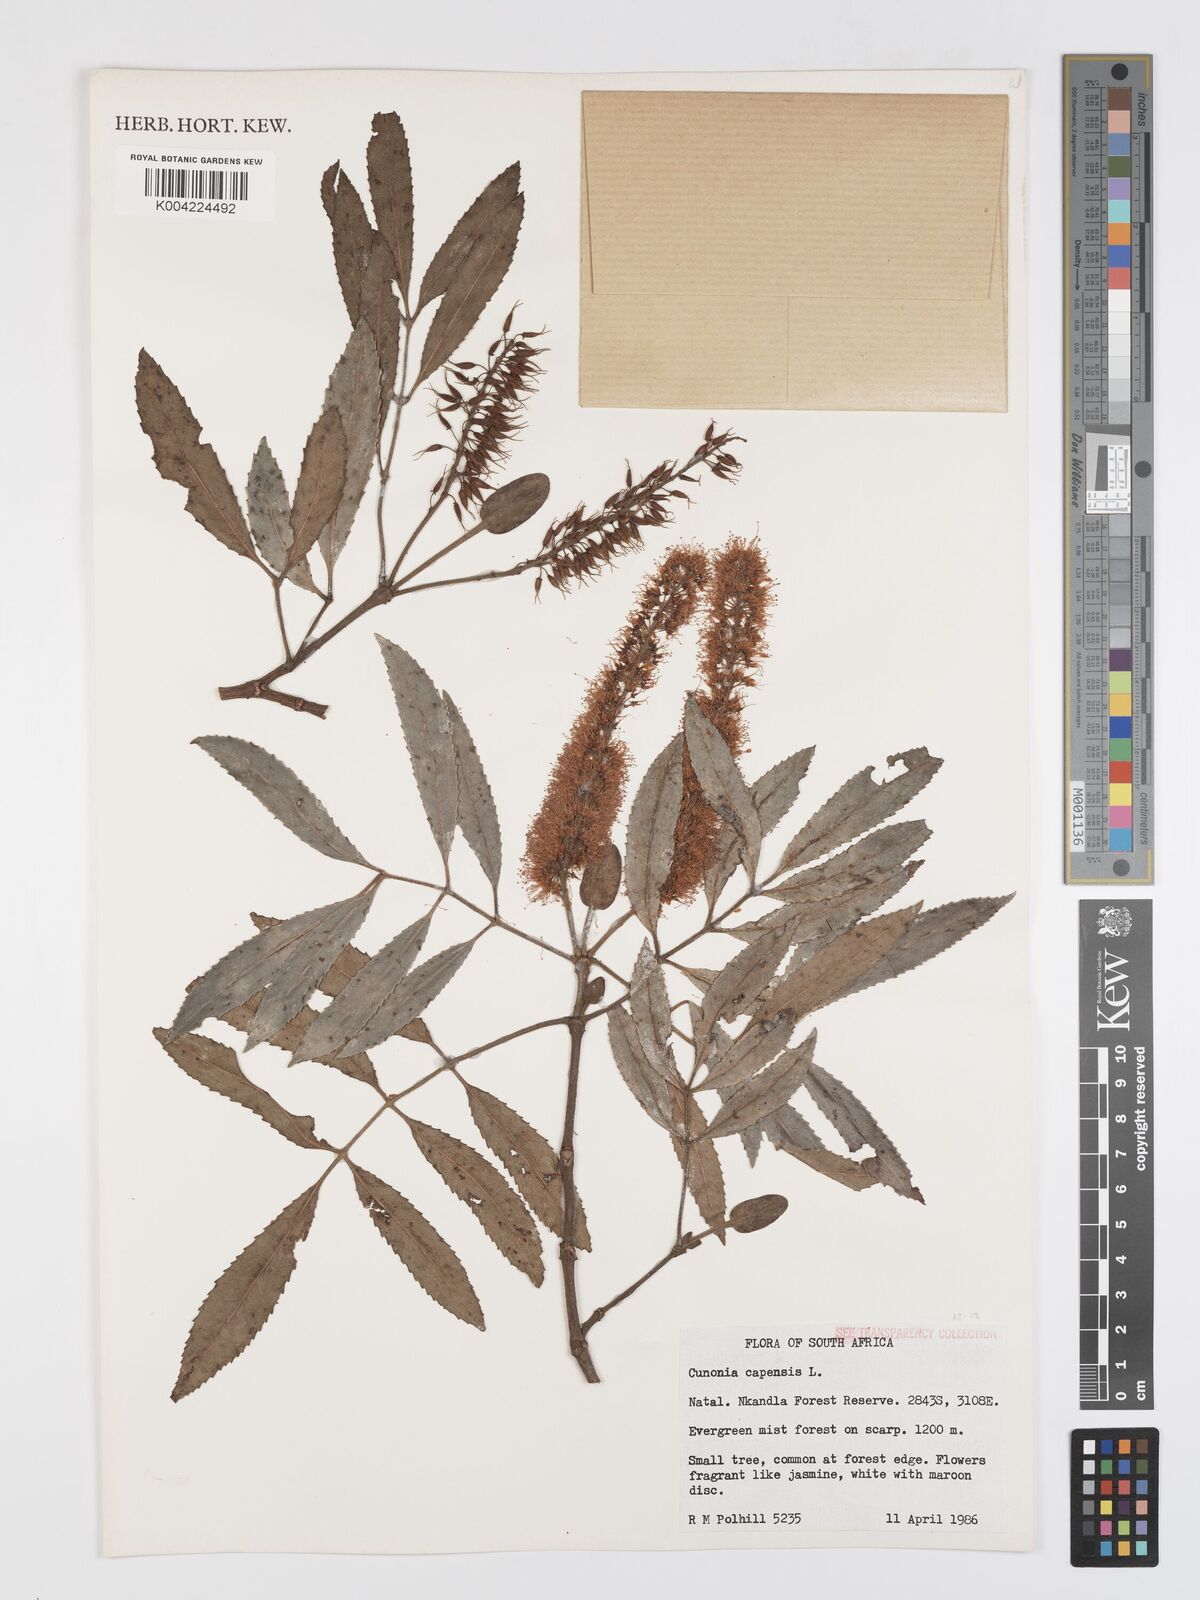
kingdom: Plantae
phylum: Tracheophyta
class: Magnoliopsida
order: Oxalidales
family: Cunoniaceae
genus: Cunonia
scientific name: Cunonia capensis
